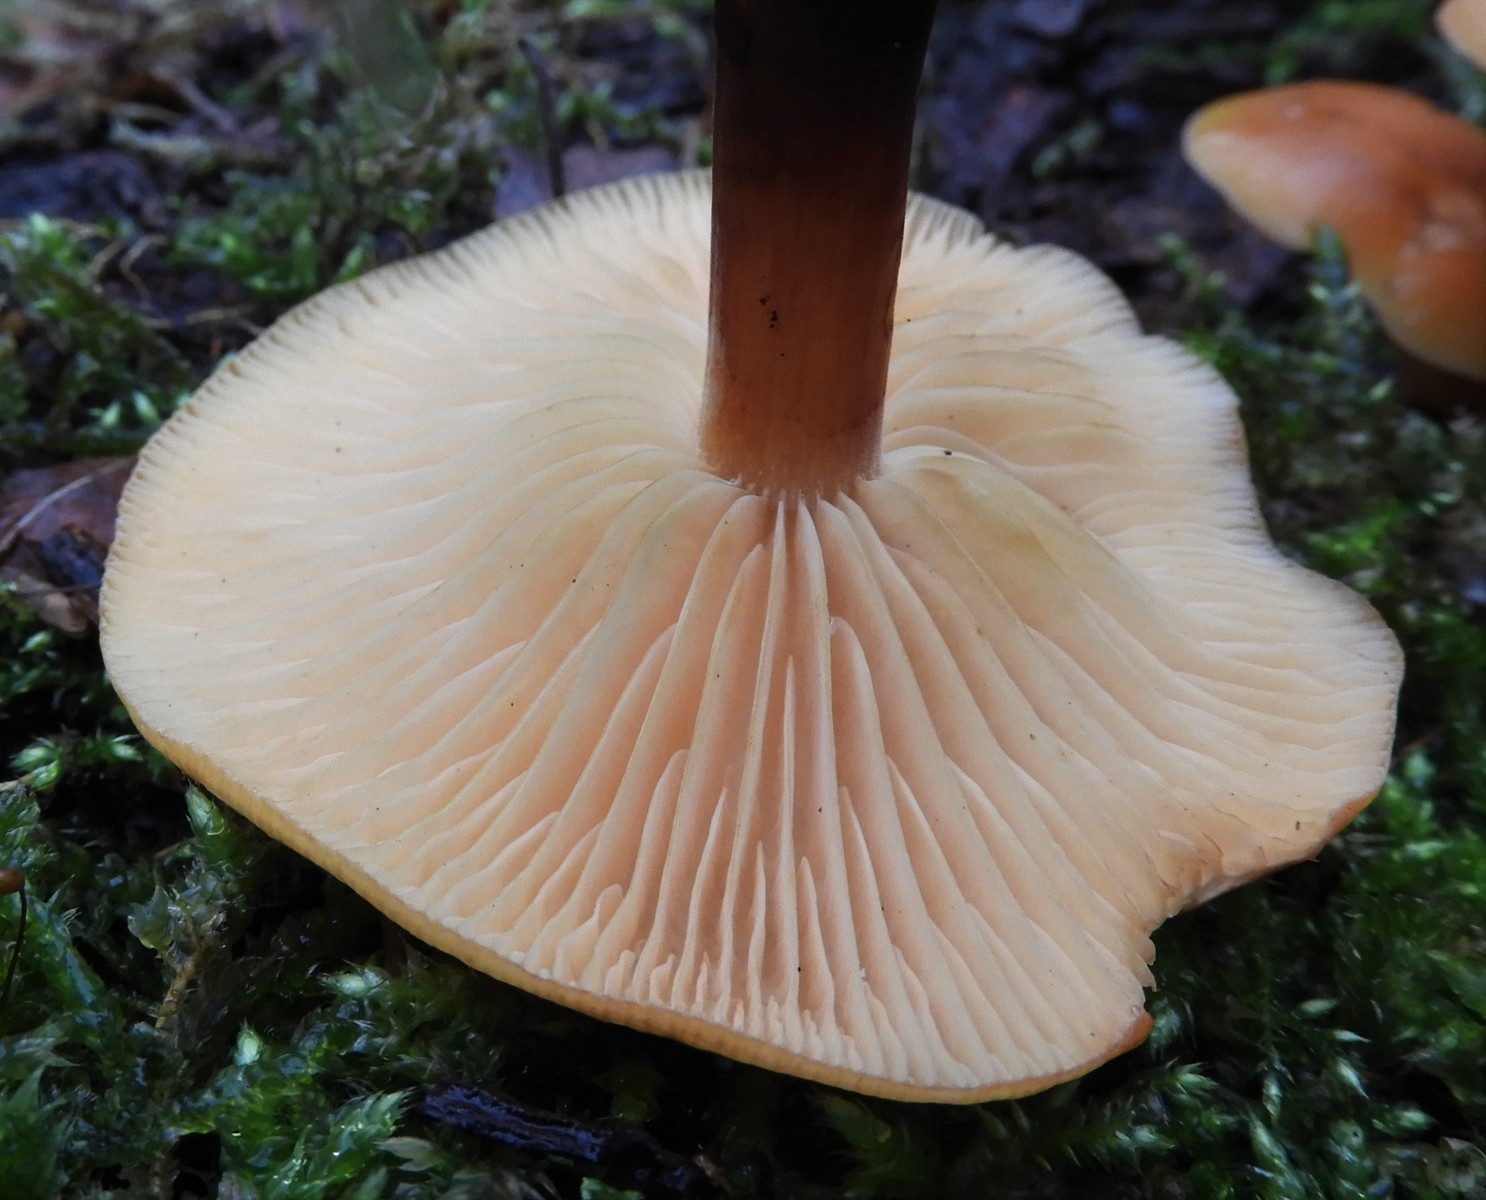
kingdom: Fungi
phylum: Basidiomycota
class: Agaricomycetes
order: Agaricales
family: Physalacriaceae
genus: Flammulina
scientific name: Flammulina
